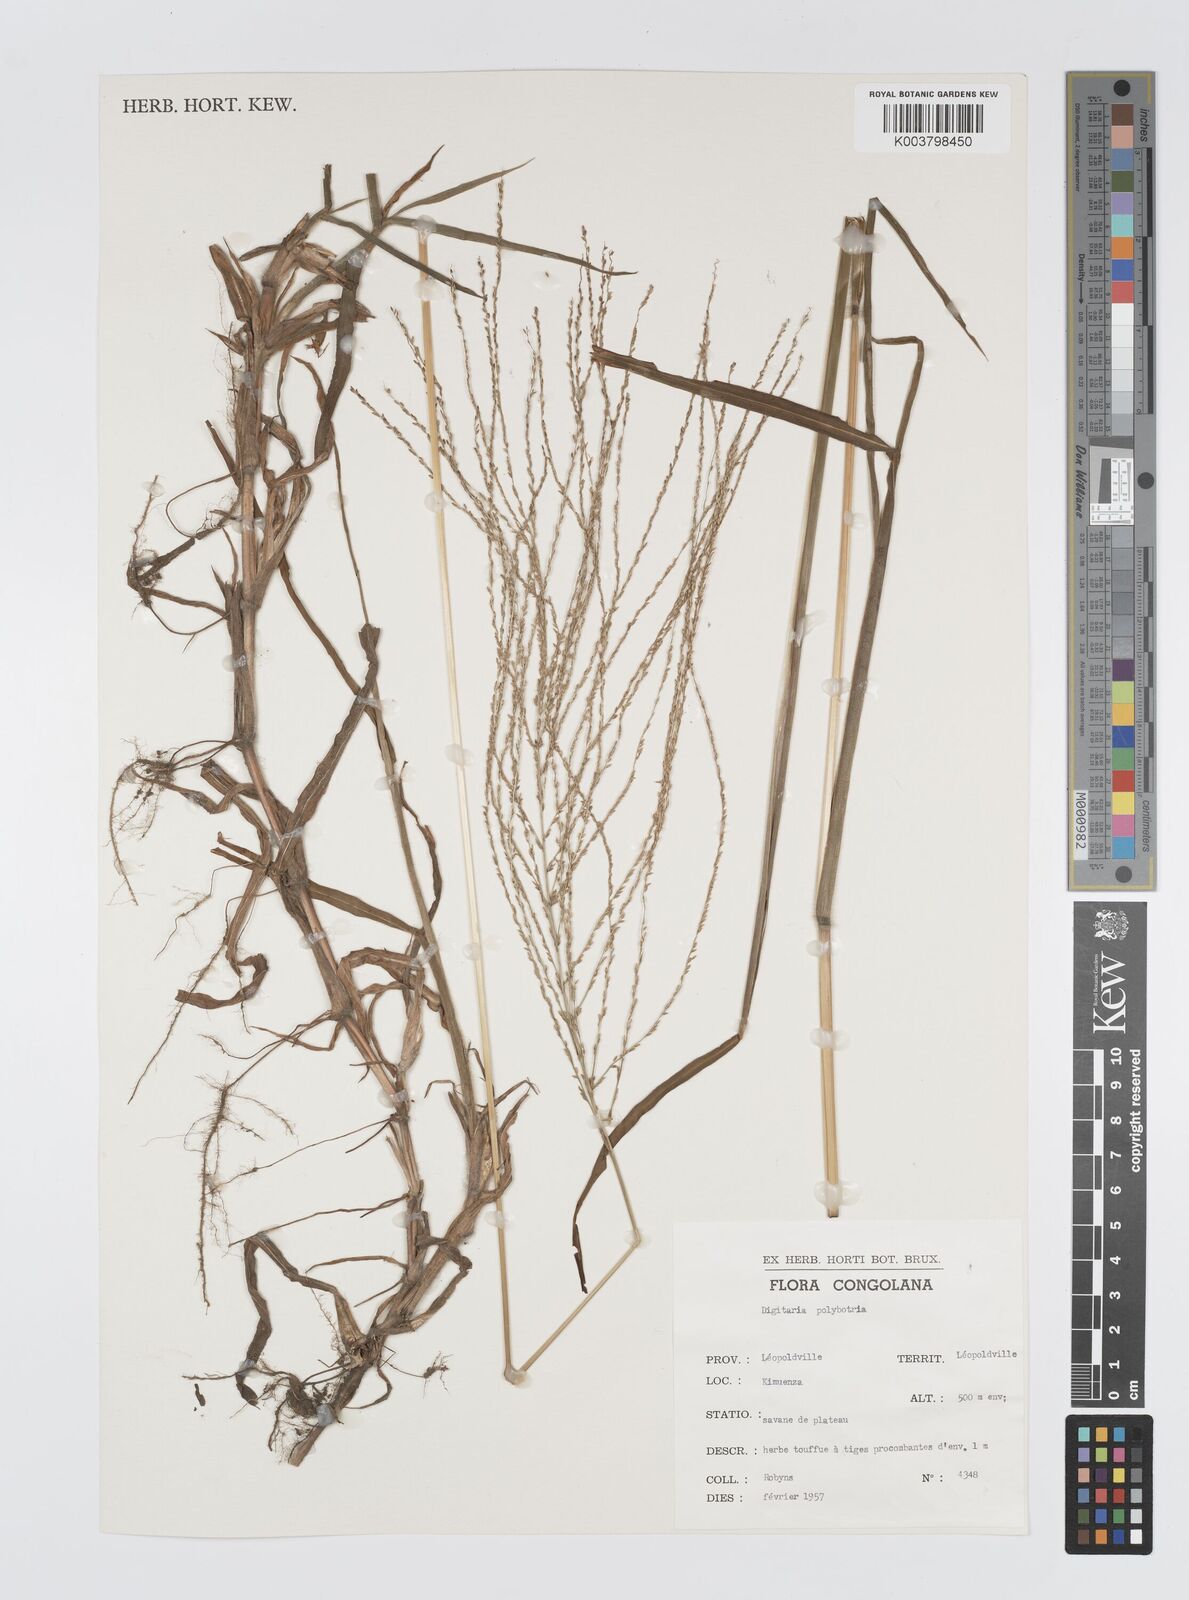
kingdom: Plantae
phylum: Tracheophyta
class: Liliopsida
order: Poales
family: Poaceae
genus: Digitaria
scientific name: Digitaria leptorhachis
